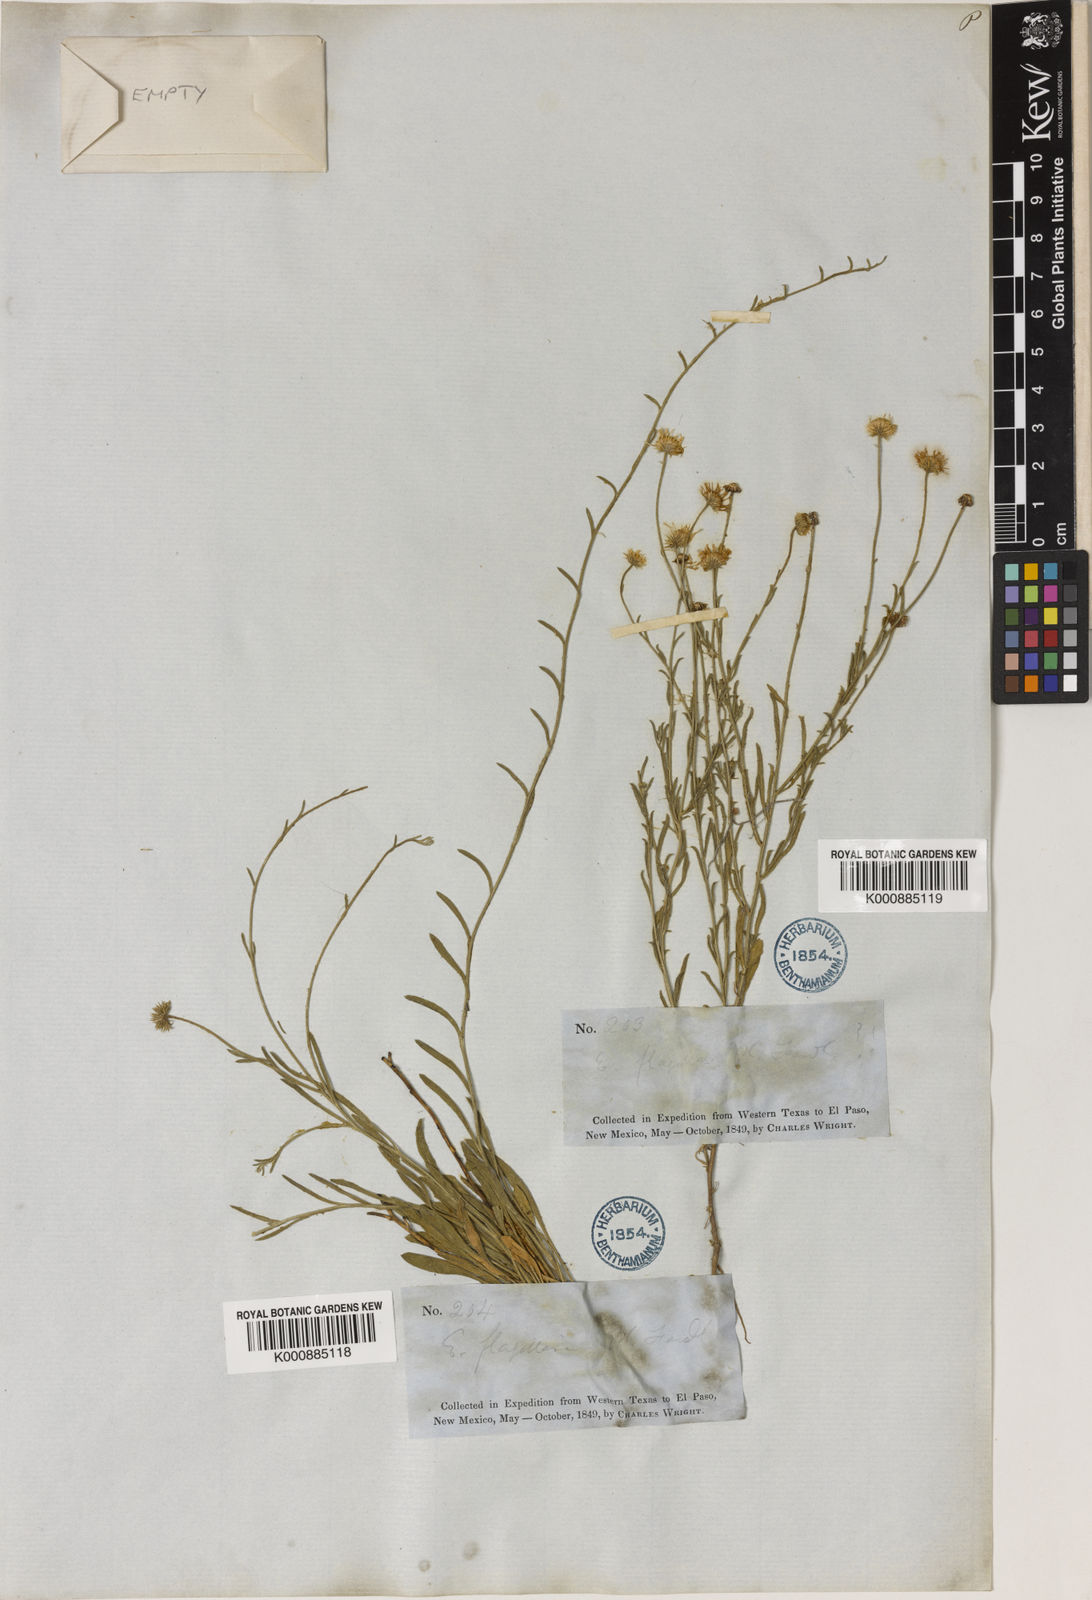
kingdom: Plantae
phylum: Tracheophyta
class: Magnoliopsida
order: Asterales
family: Asteraceae
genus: Erigeron
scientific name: Erigeron
